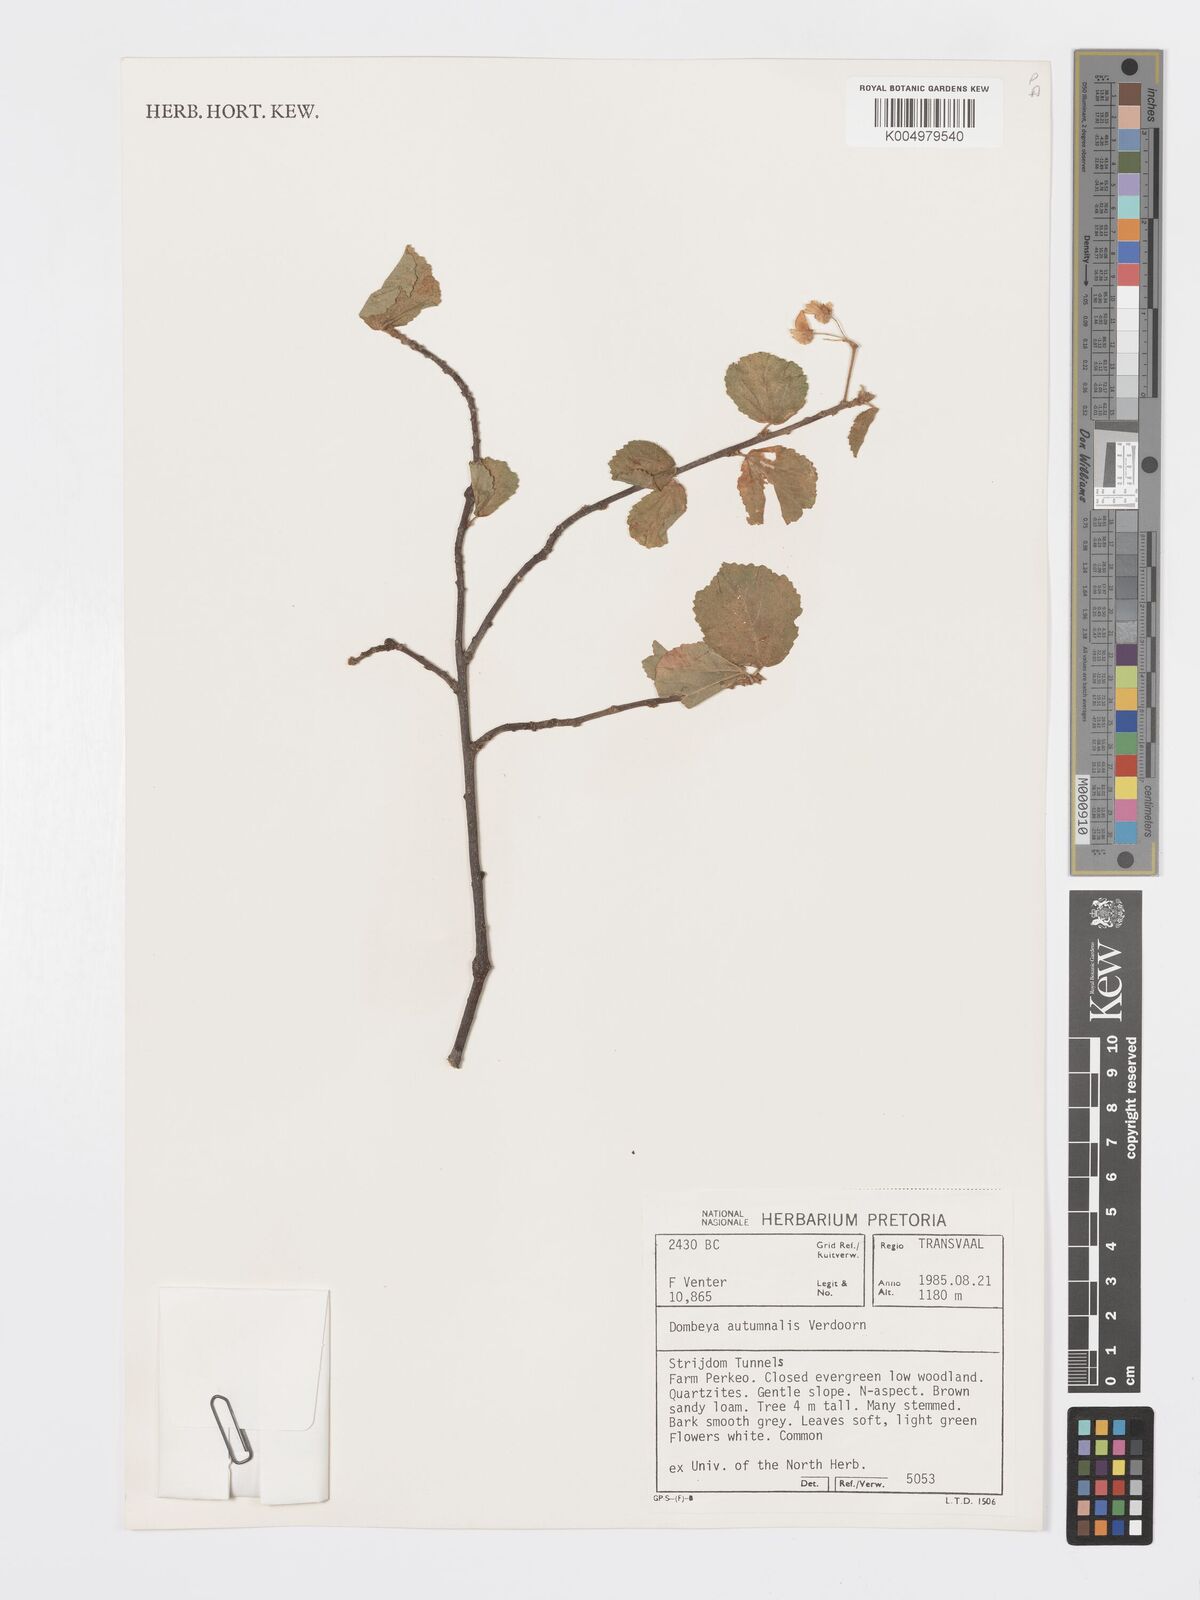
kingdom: Plantae
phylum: Tracheophyta
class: Magnoliopsida
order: Malvales
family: Malvaceae
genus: Dombeya
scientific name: Dombeya autumnalis
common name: Rock dombeya
